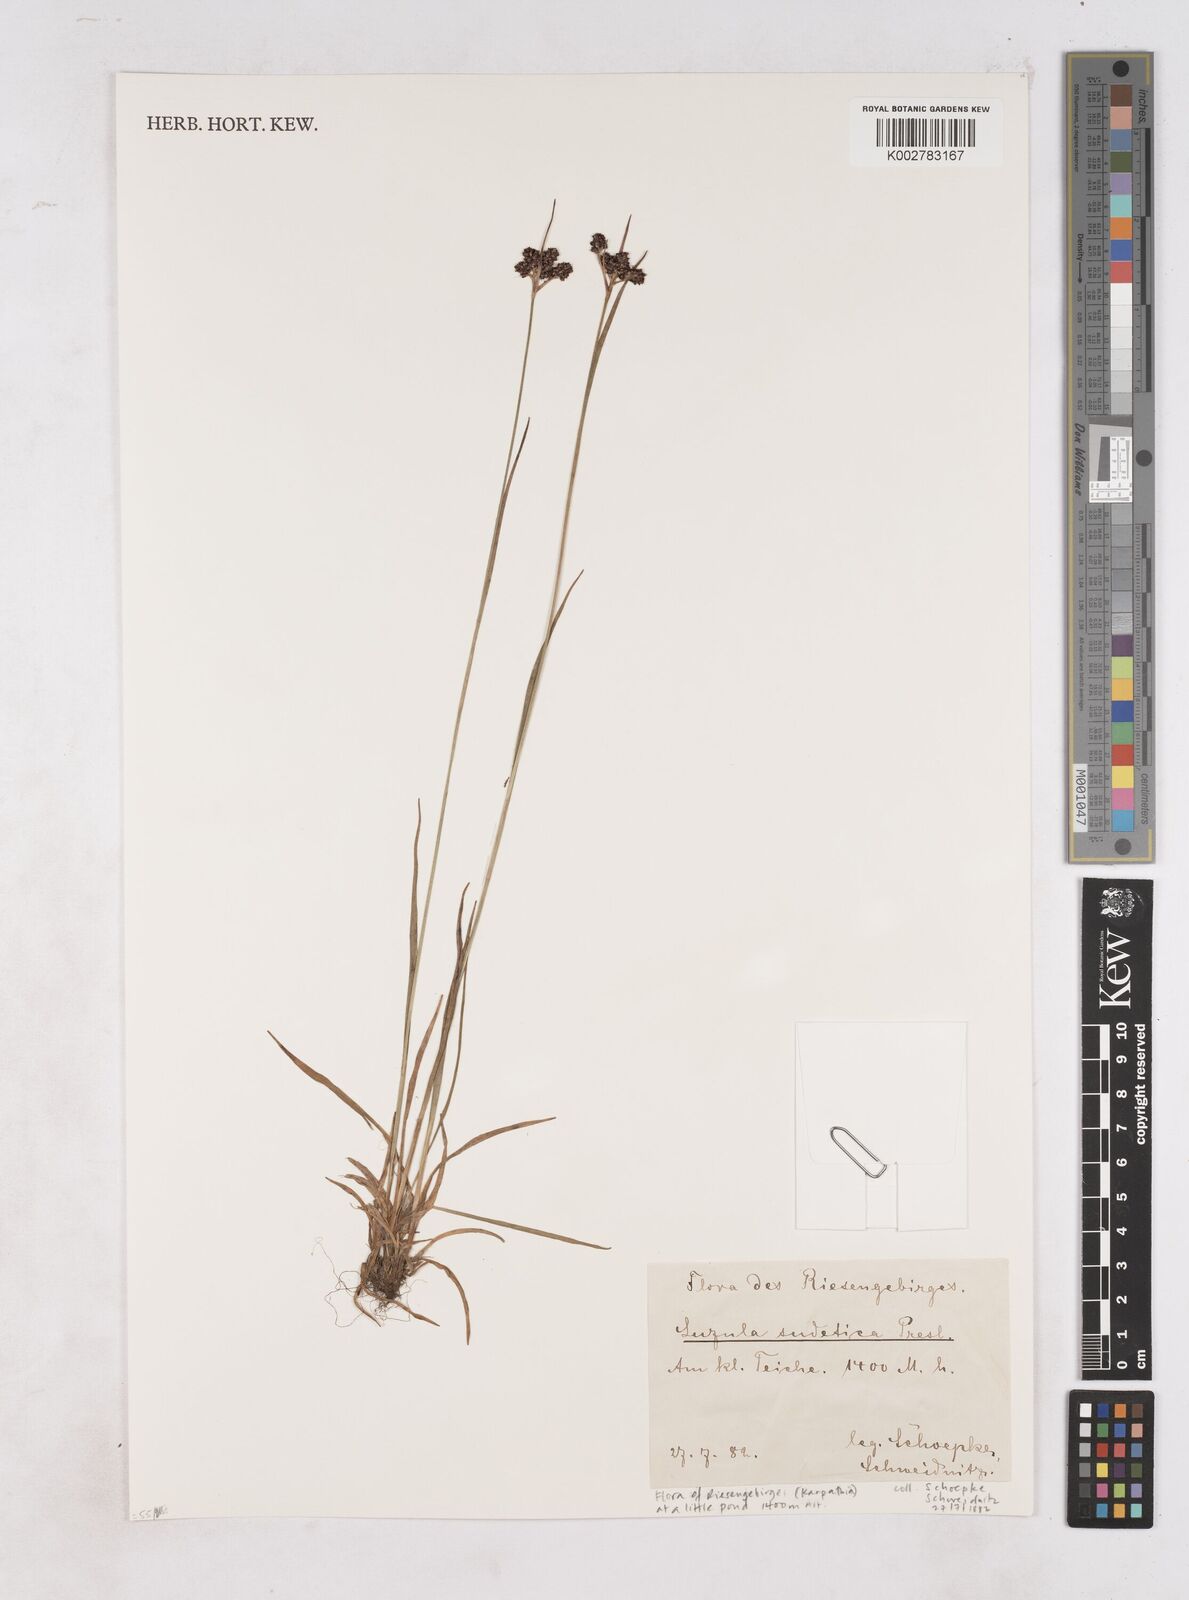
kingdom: Plantae
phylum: Tracheophyta
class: Liliopsida
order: Poales
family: Juncaceae
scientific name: Juncaceae
